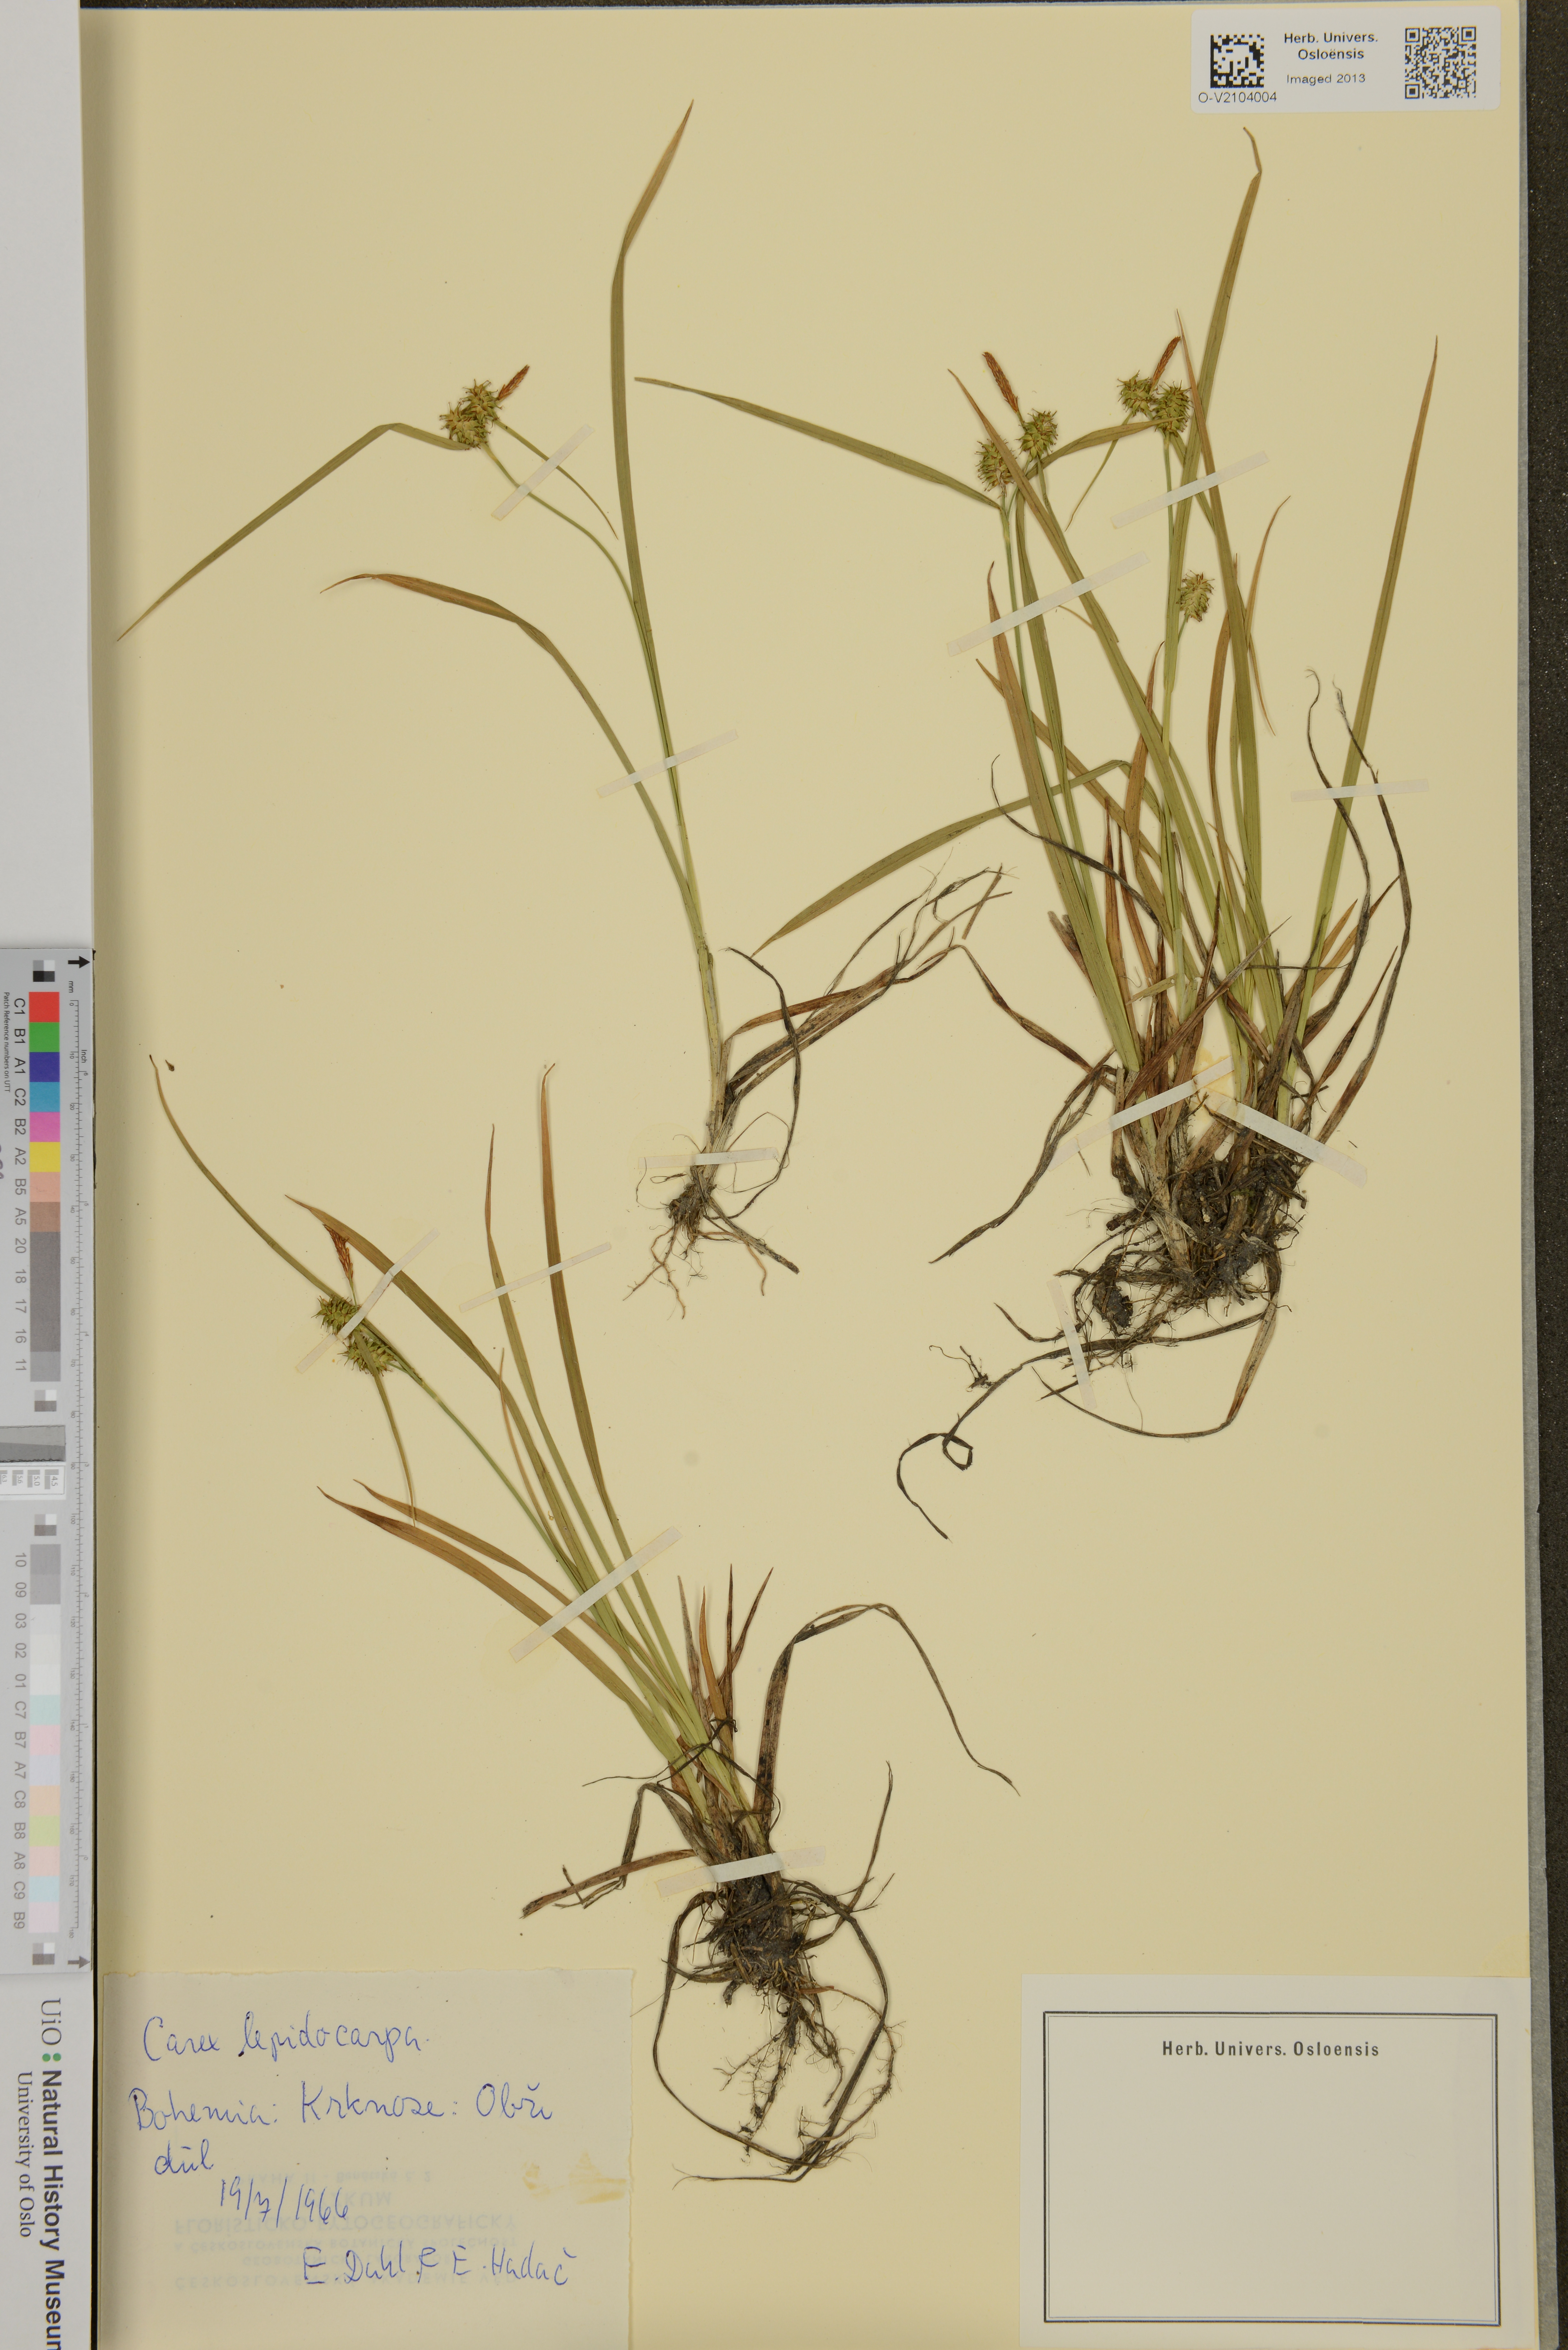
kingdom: Plantae
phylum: Tracheophyta
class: Liliopsida
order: Poales
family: Cyperaceae
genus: Carex
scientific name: Carex lepidocarpa
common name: Long-stalked yellow-sedge
